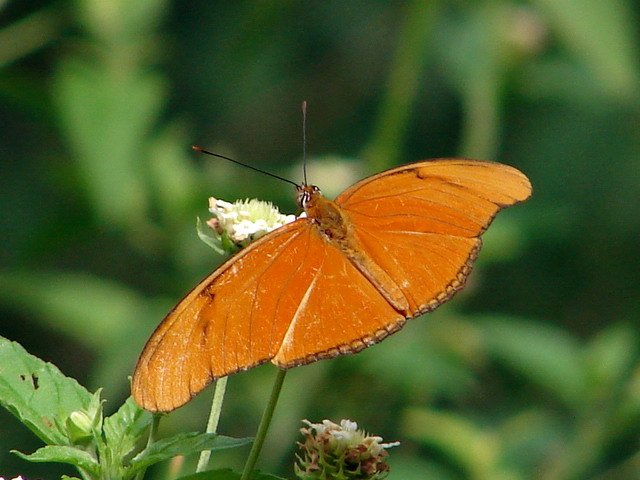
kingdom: Animalia
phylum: Arthropoda
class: Insecta
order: Lepidoptera
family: Nymphalidae
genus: Dryas
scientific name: Dryas iulia
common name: Julia
